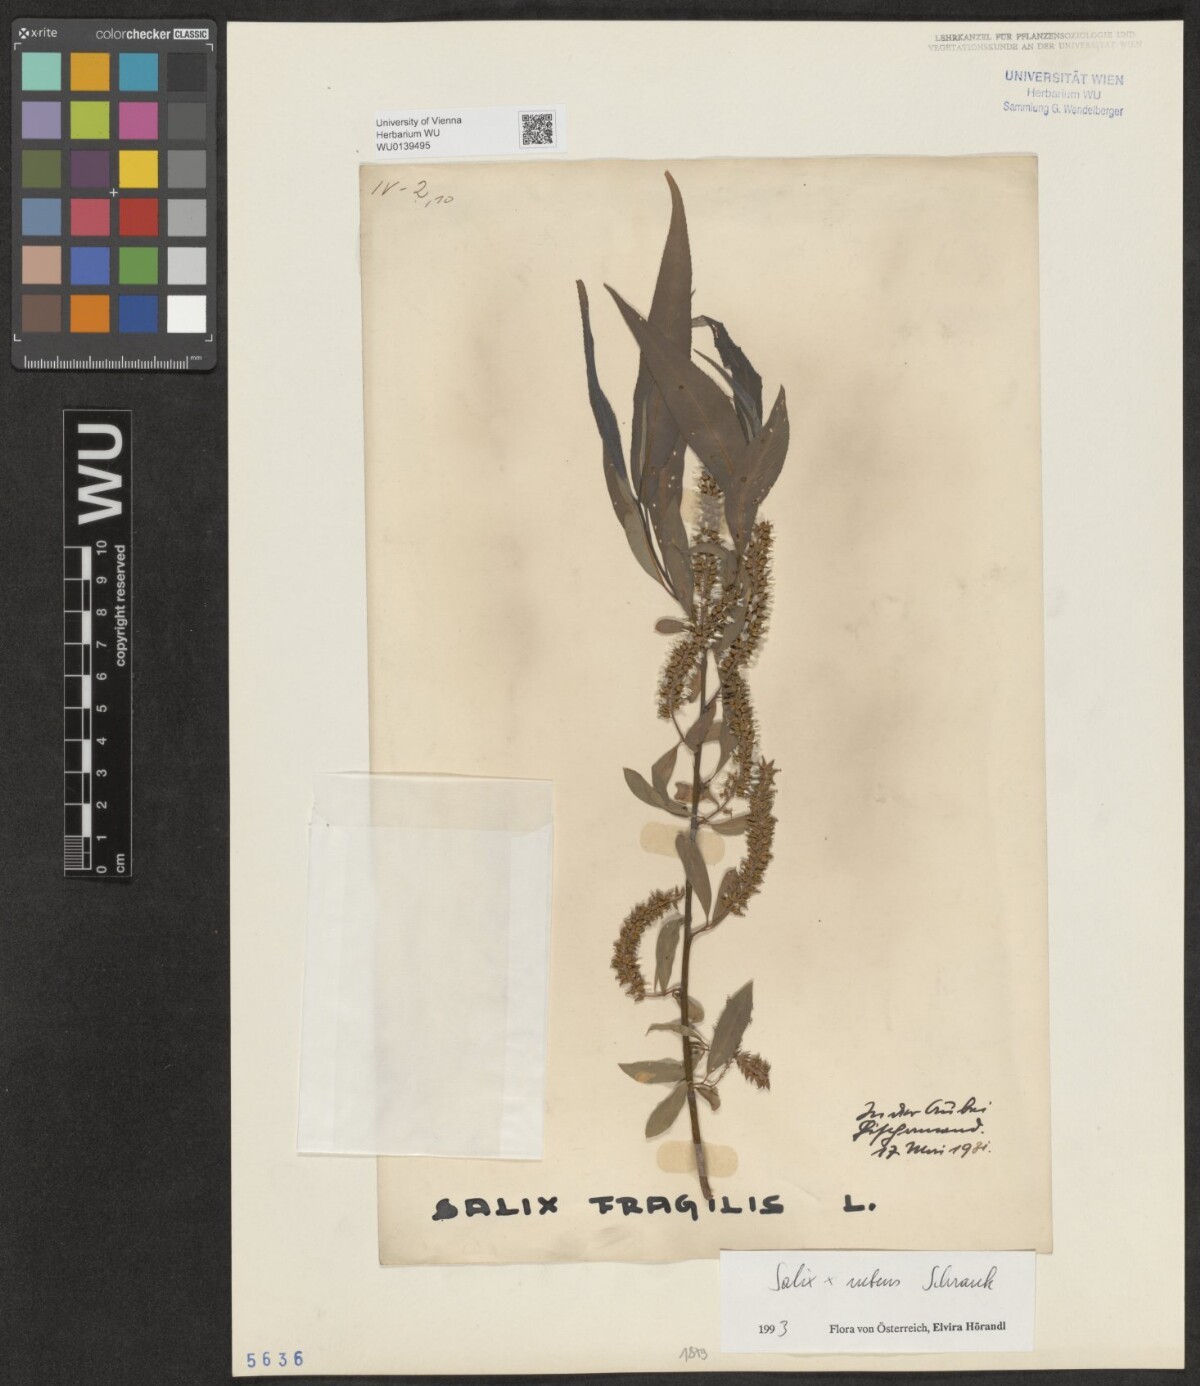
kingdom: Plantae
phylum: Tracheophyta
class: Magnoliopsida
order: Malpighiales
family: Salicaceae
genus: Salix
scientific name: Salix rubens
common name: Hybrid crack willow
